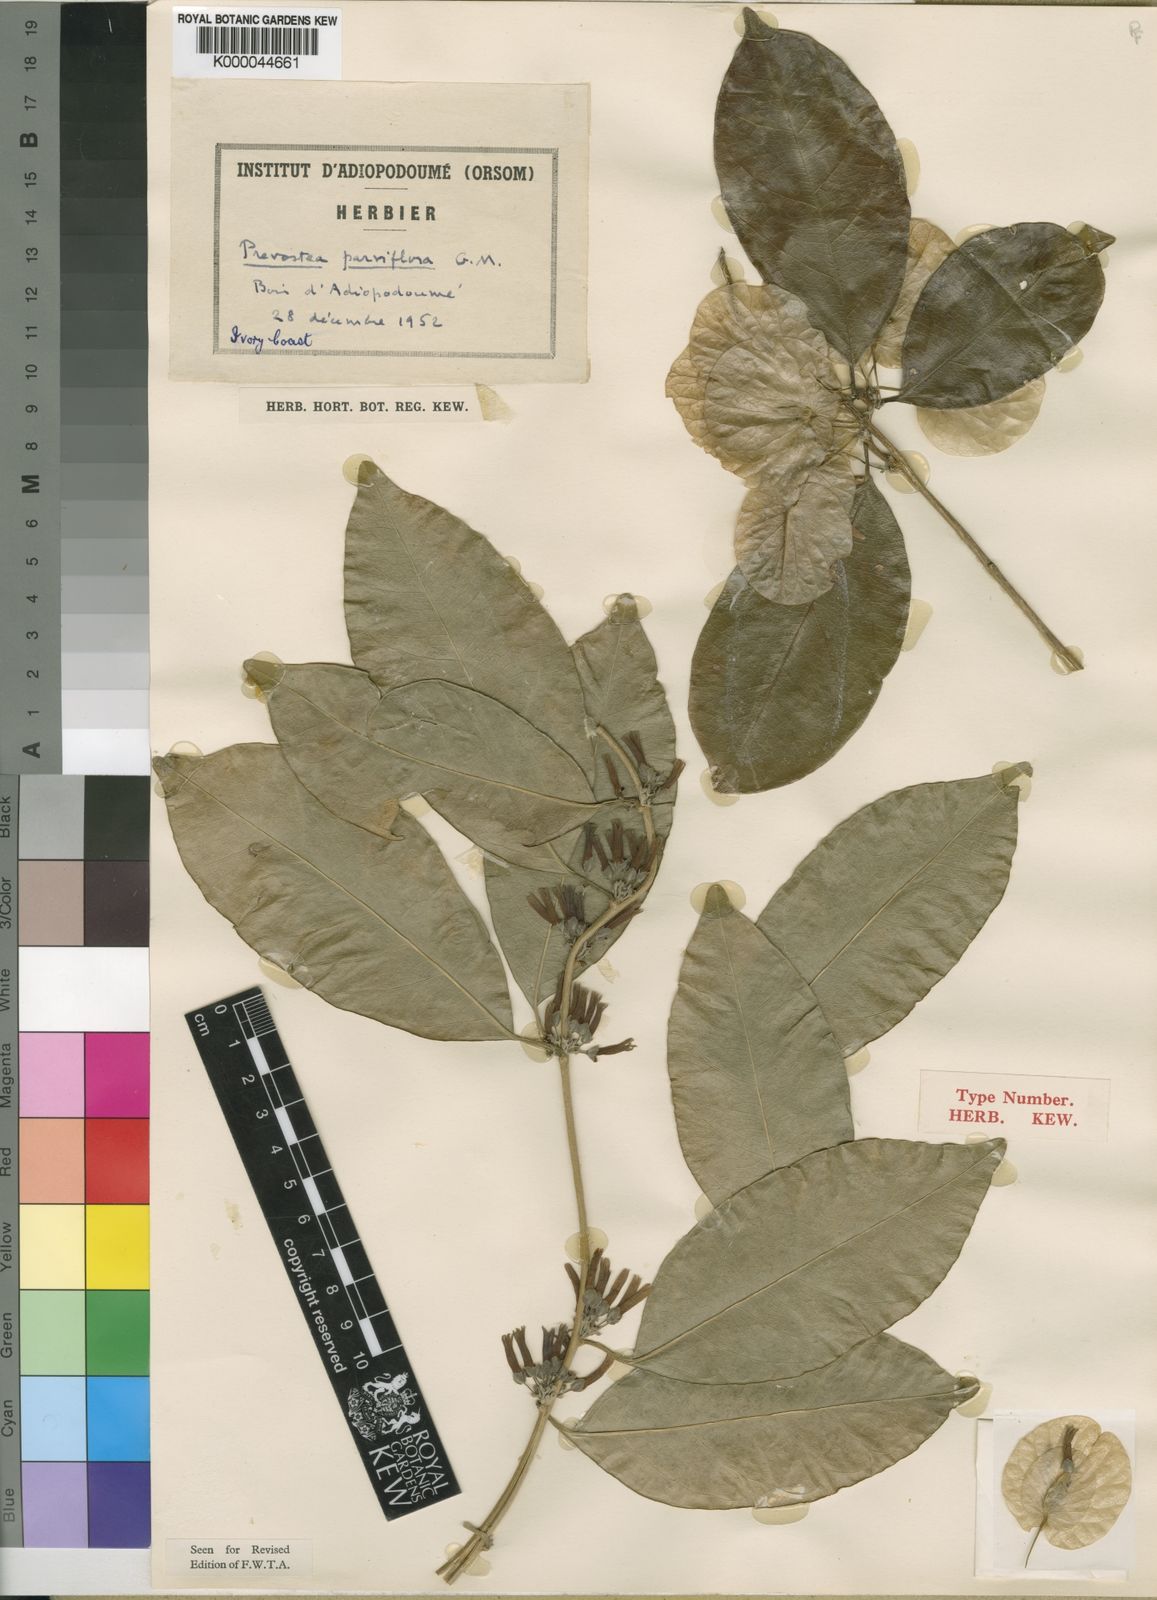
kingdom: Plantae
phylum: Tracheophyta
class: Magnoliopsida
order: Solanales
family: Convolvulaceae
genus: Calycobolus
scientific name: Calycobolus parviflorus
